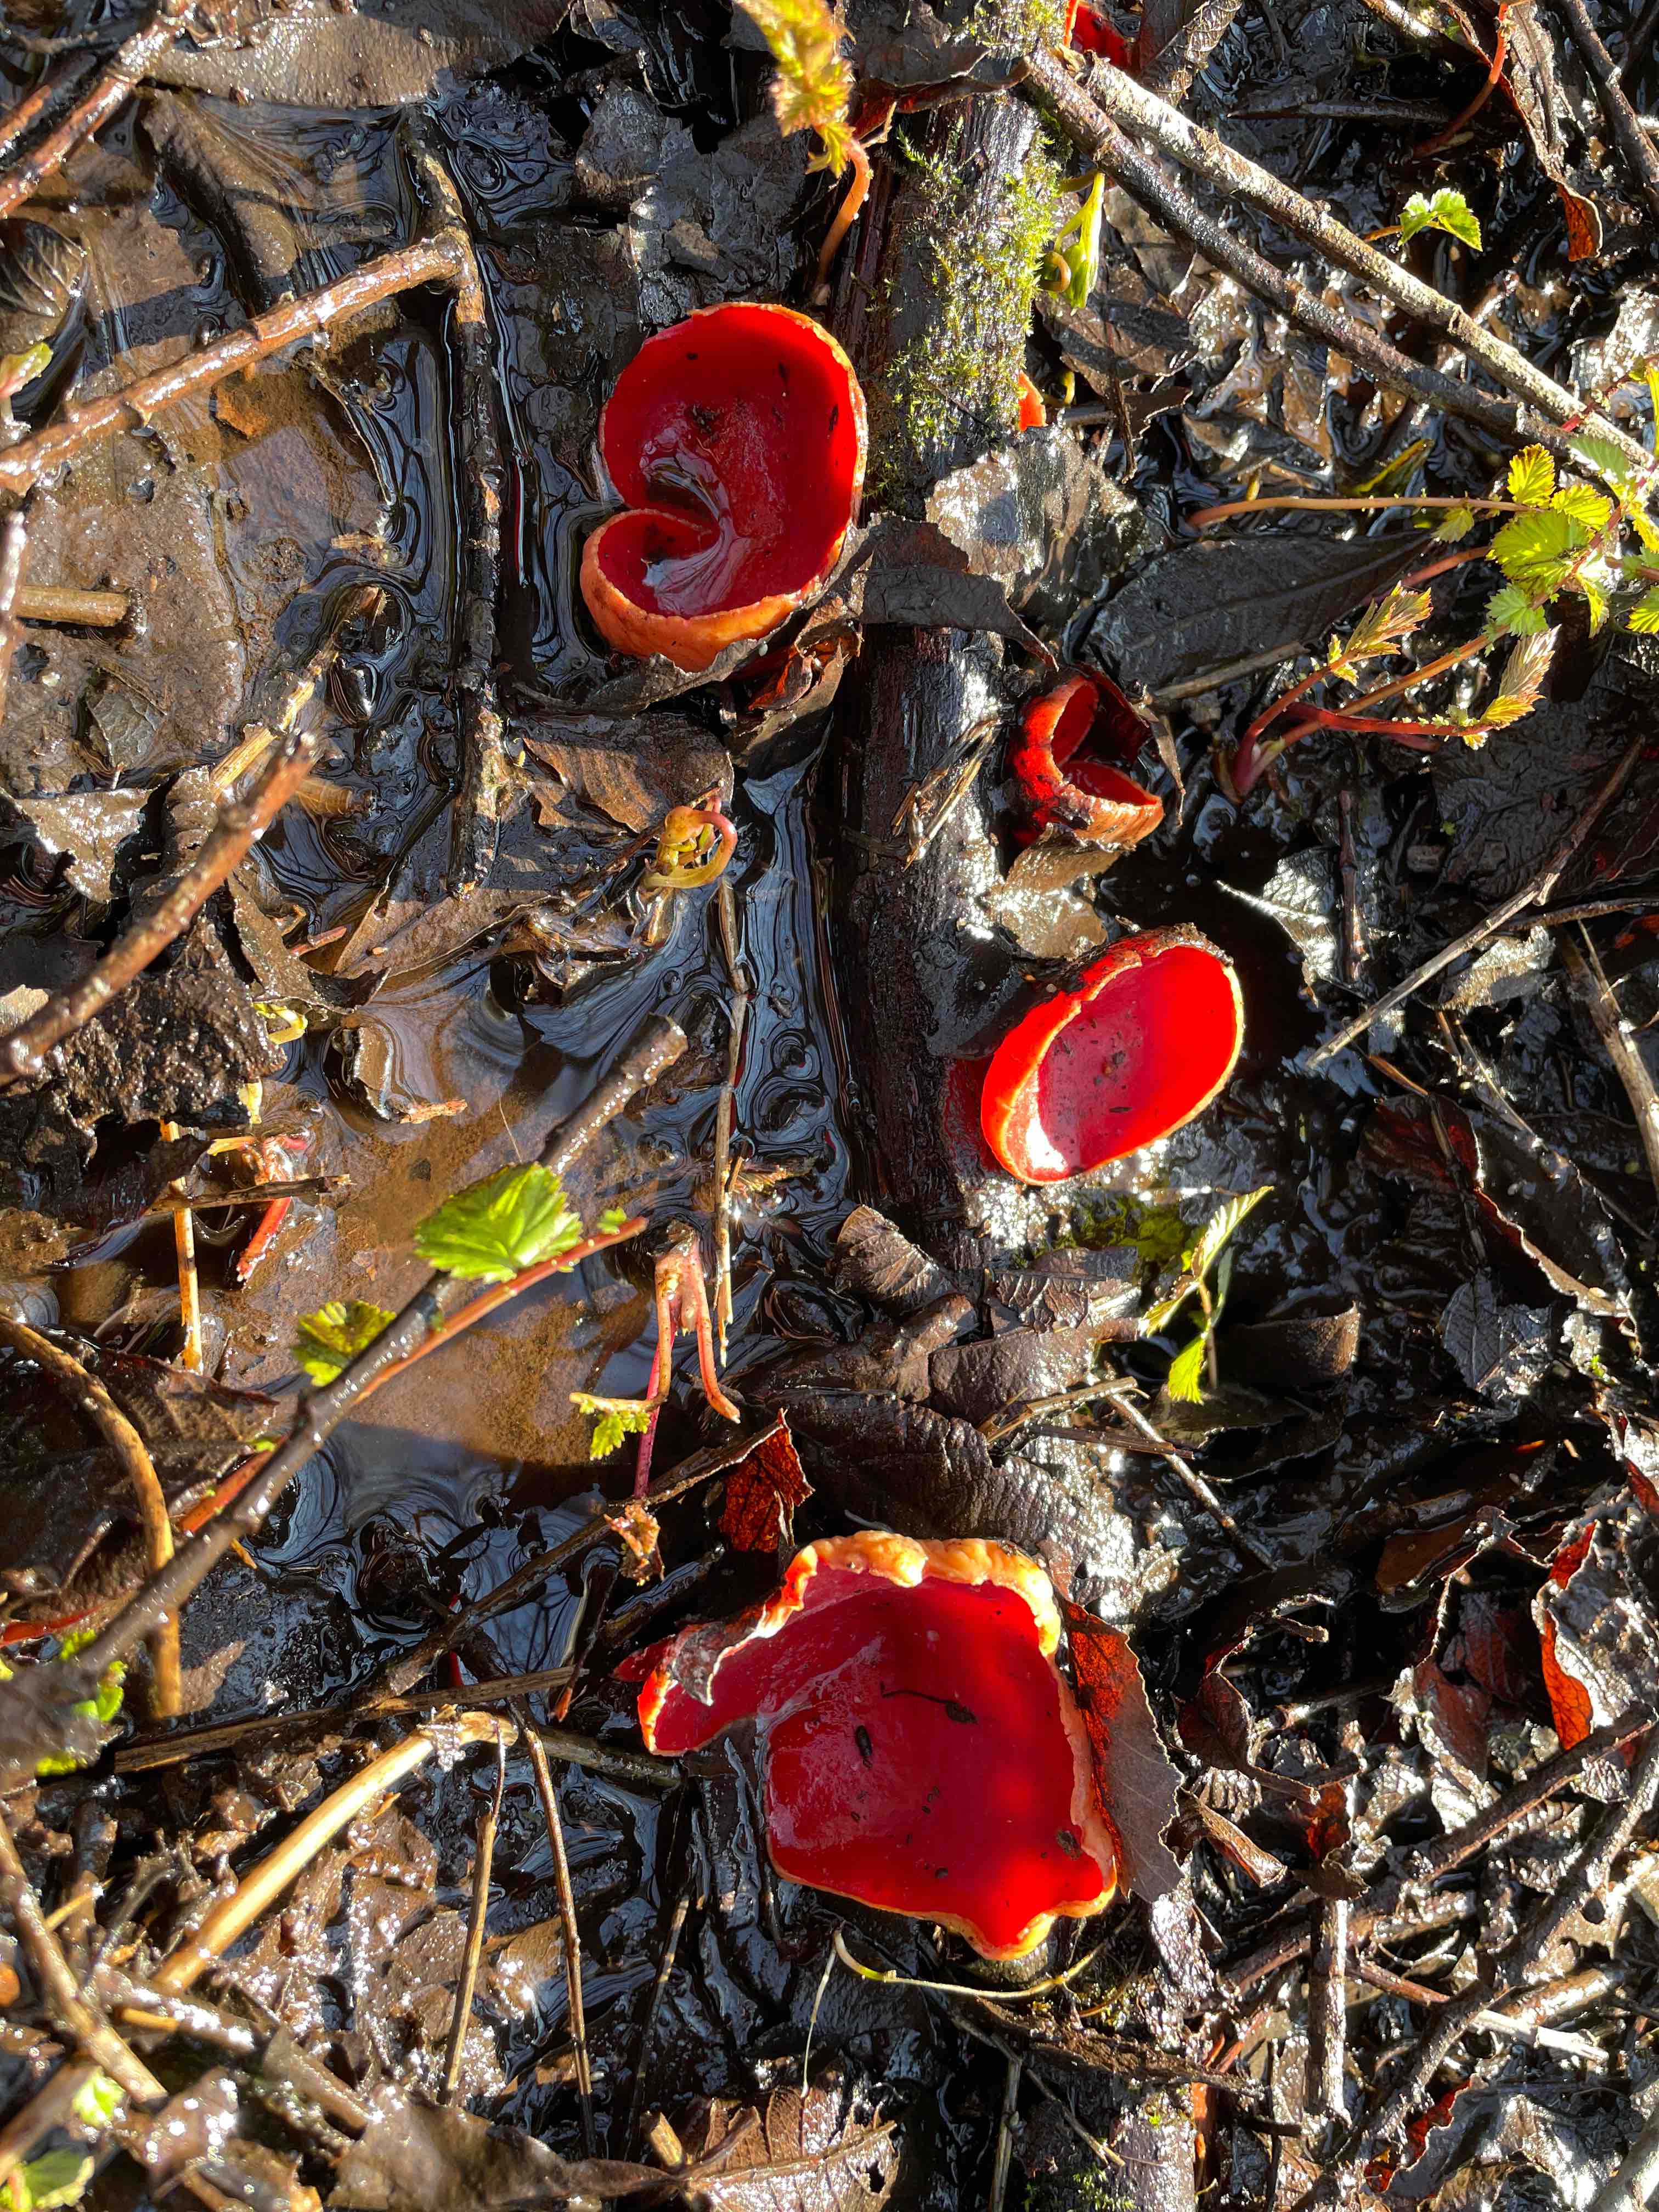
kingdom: Fungi
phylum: Ascomycota
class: Pezizomycetes
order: Pezizales
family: Sarcoscyphaceae
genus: Sarcoscypha
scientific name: Sarcoscypha austriaca
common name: krølhåret pragtbæger
